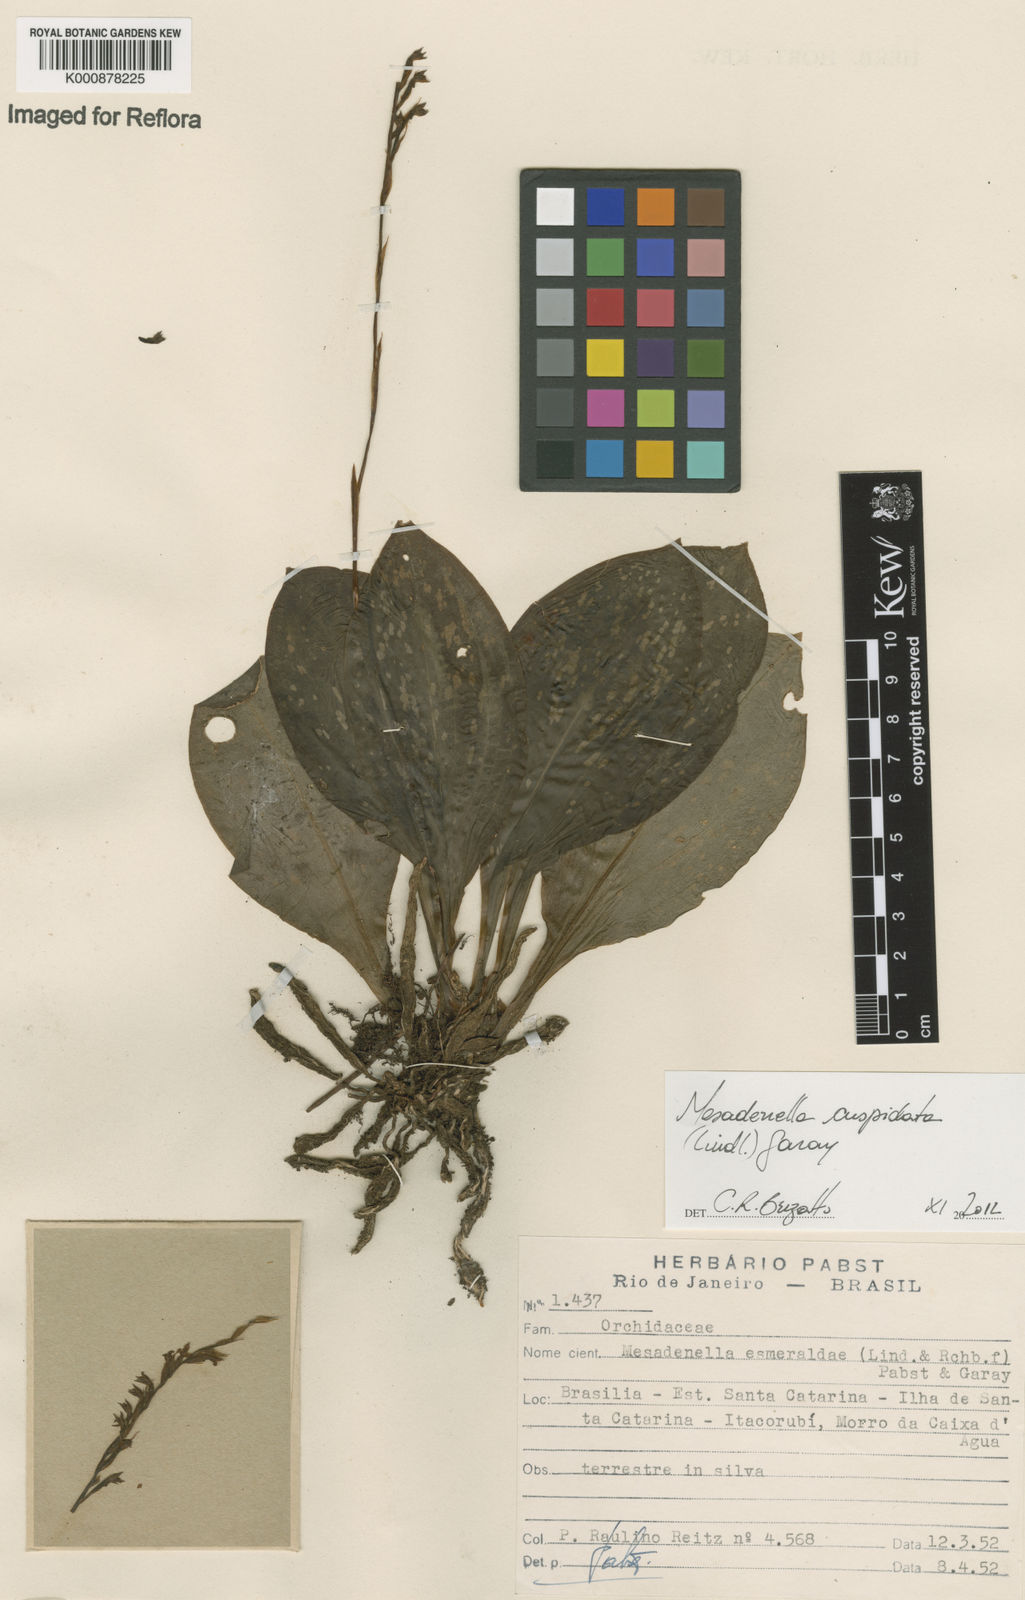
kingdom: Plantae
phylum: Tracheophyta
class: Liliopsida
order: Asparagales
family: Orchidaceae
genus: Mesadenella
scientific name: Mesadenella cuspidata
